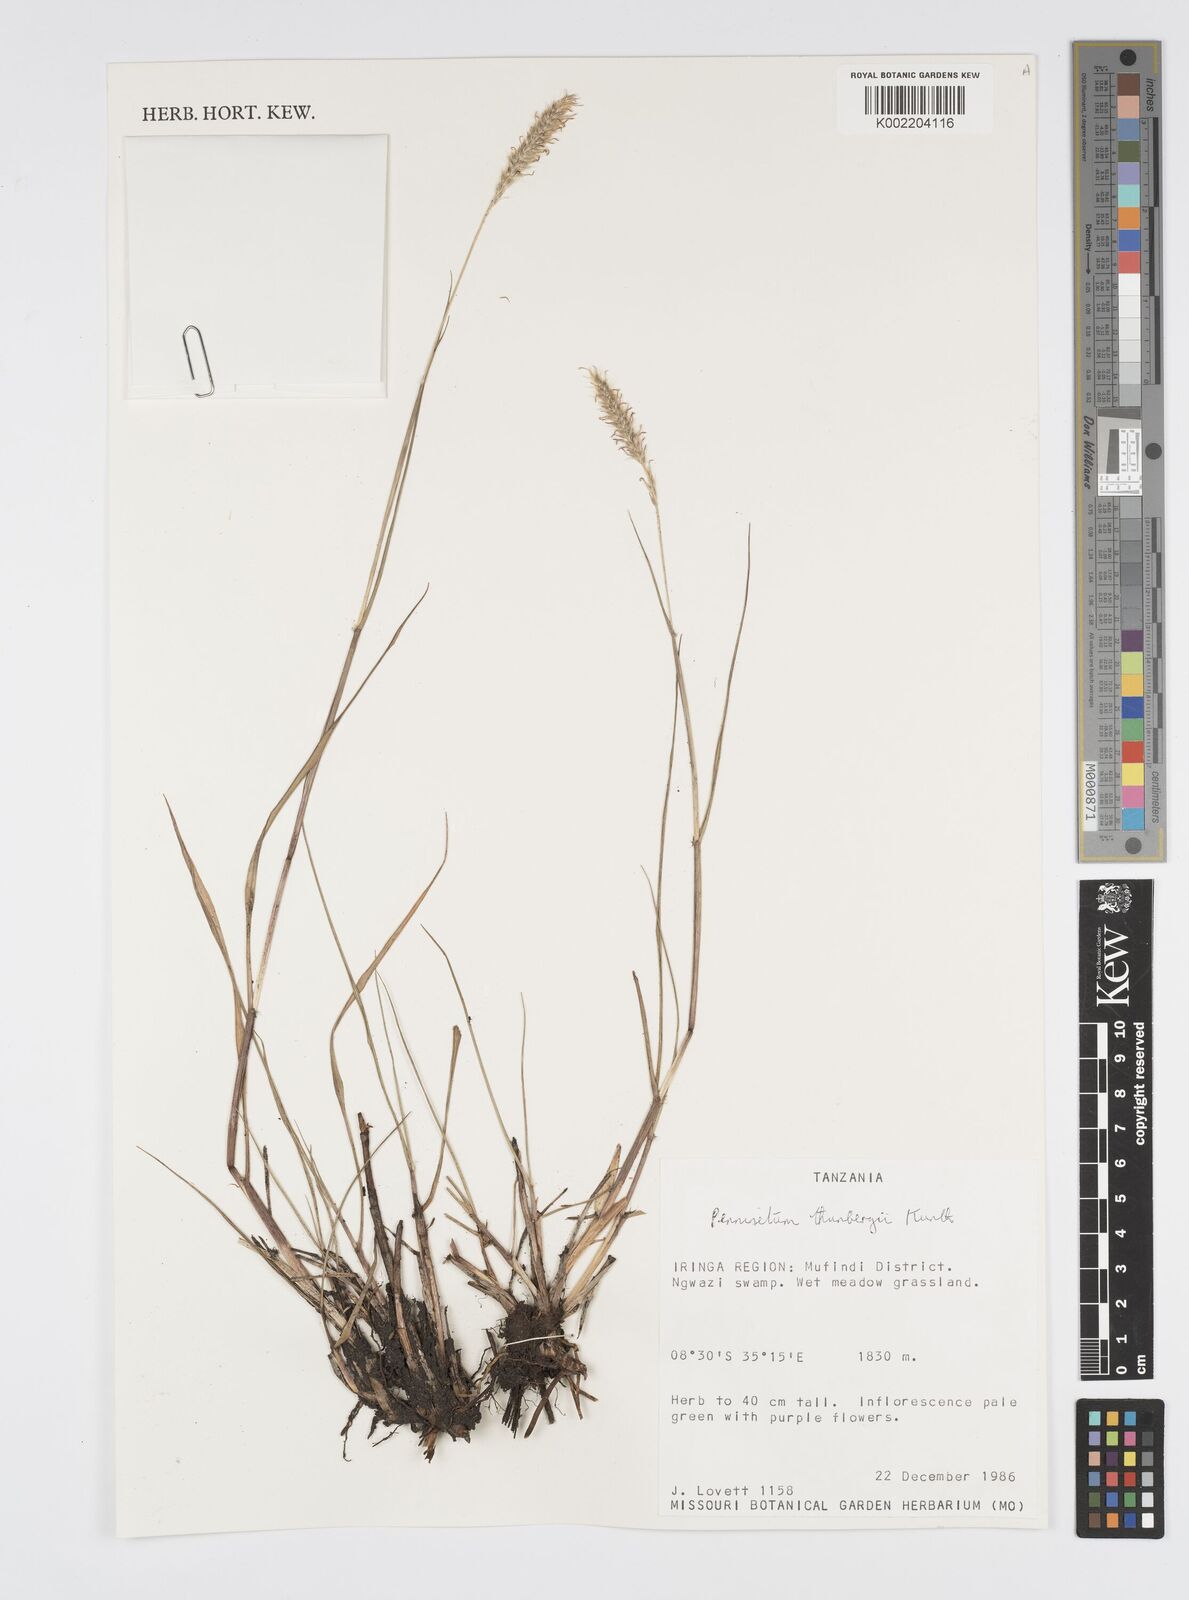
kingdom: Plantae
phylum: Tracheophyta
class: Liliopsida
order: Poales
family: Poaceae
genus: Cenchrus
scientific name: Cenchrus geniculatus
